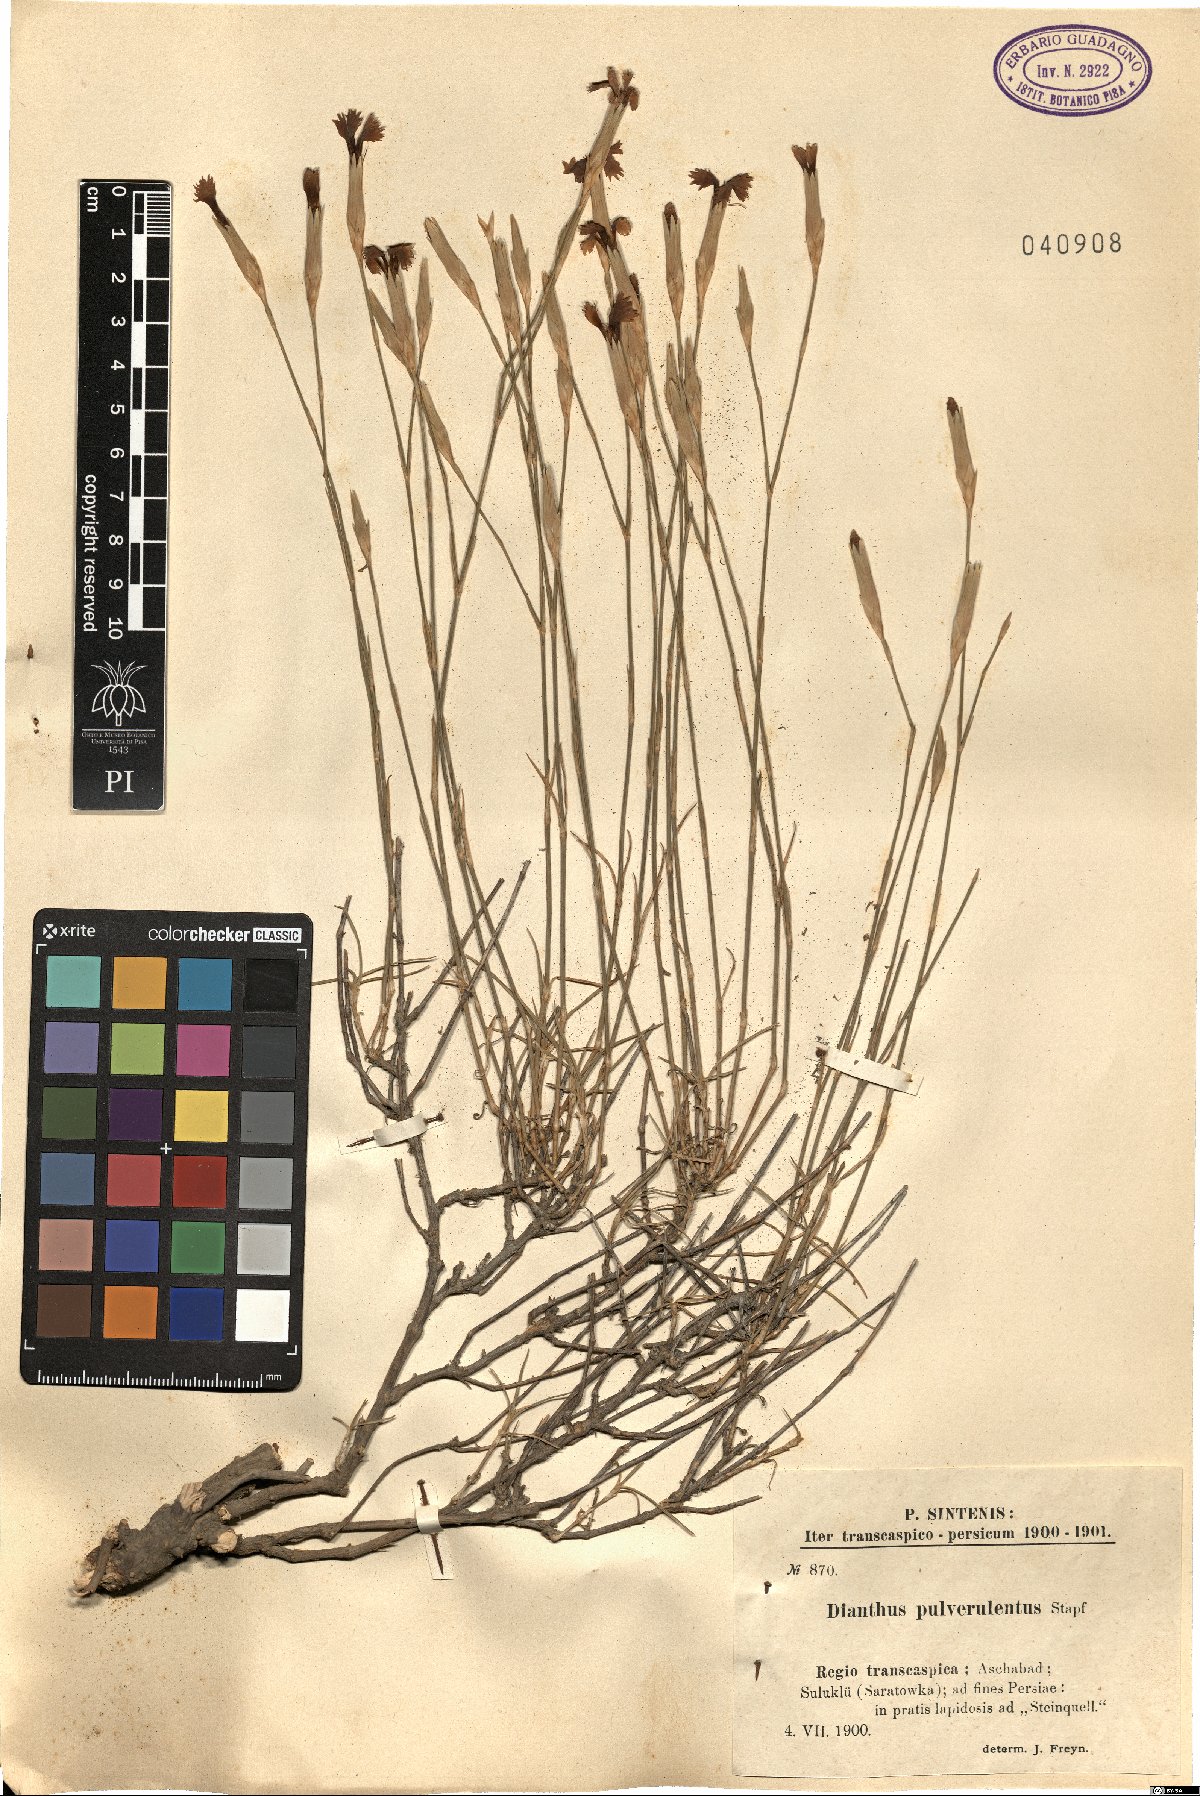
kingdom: Plantae
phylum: Tracheophyta
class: Magnoliopsida
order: Caryophyllales
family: Caryophyllaceae
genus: Dianthus
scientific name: Dianthus orientalis
